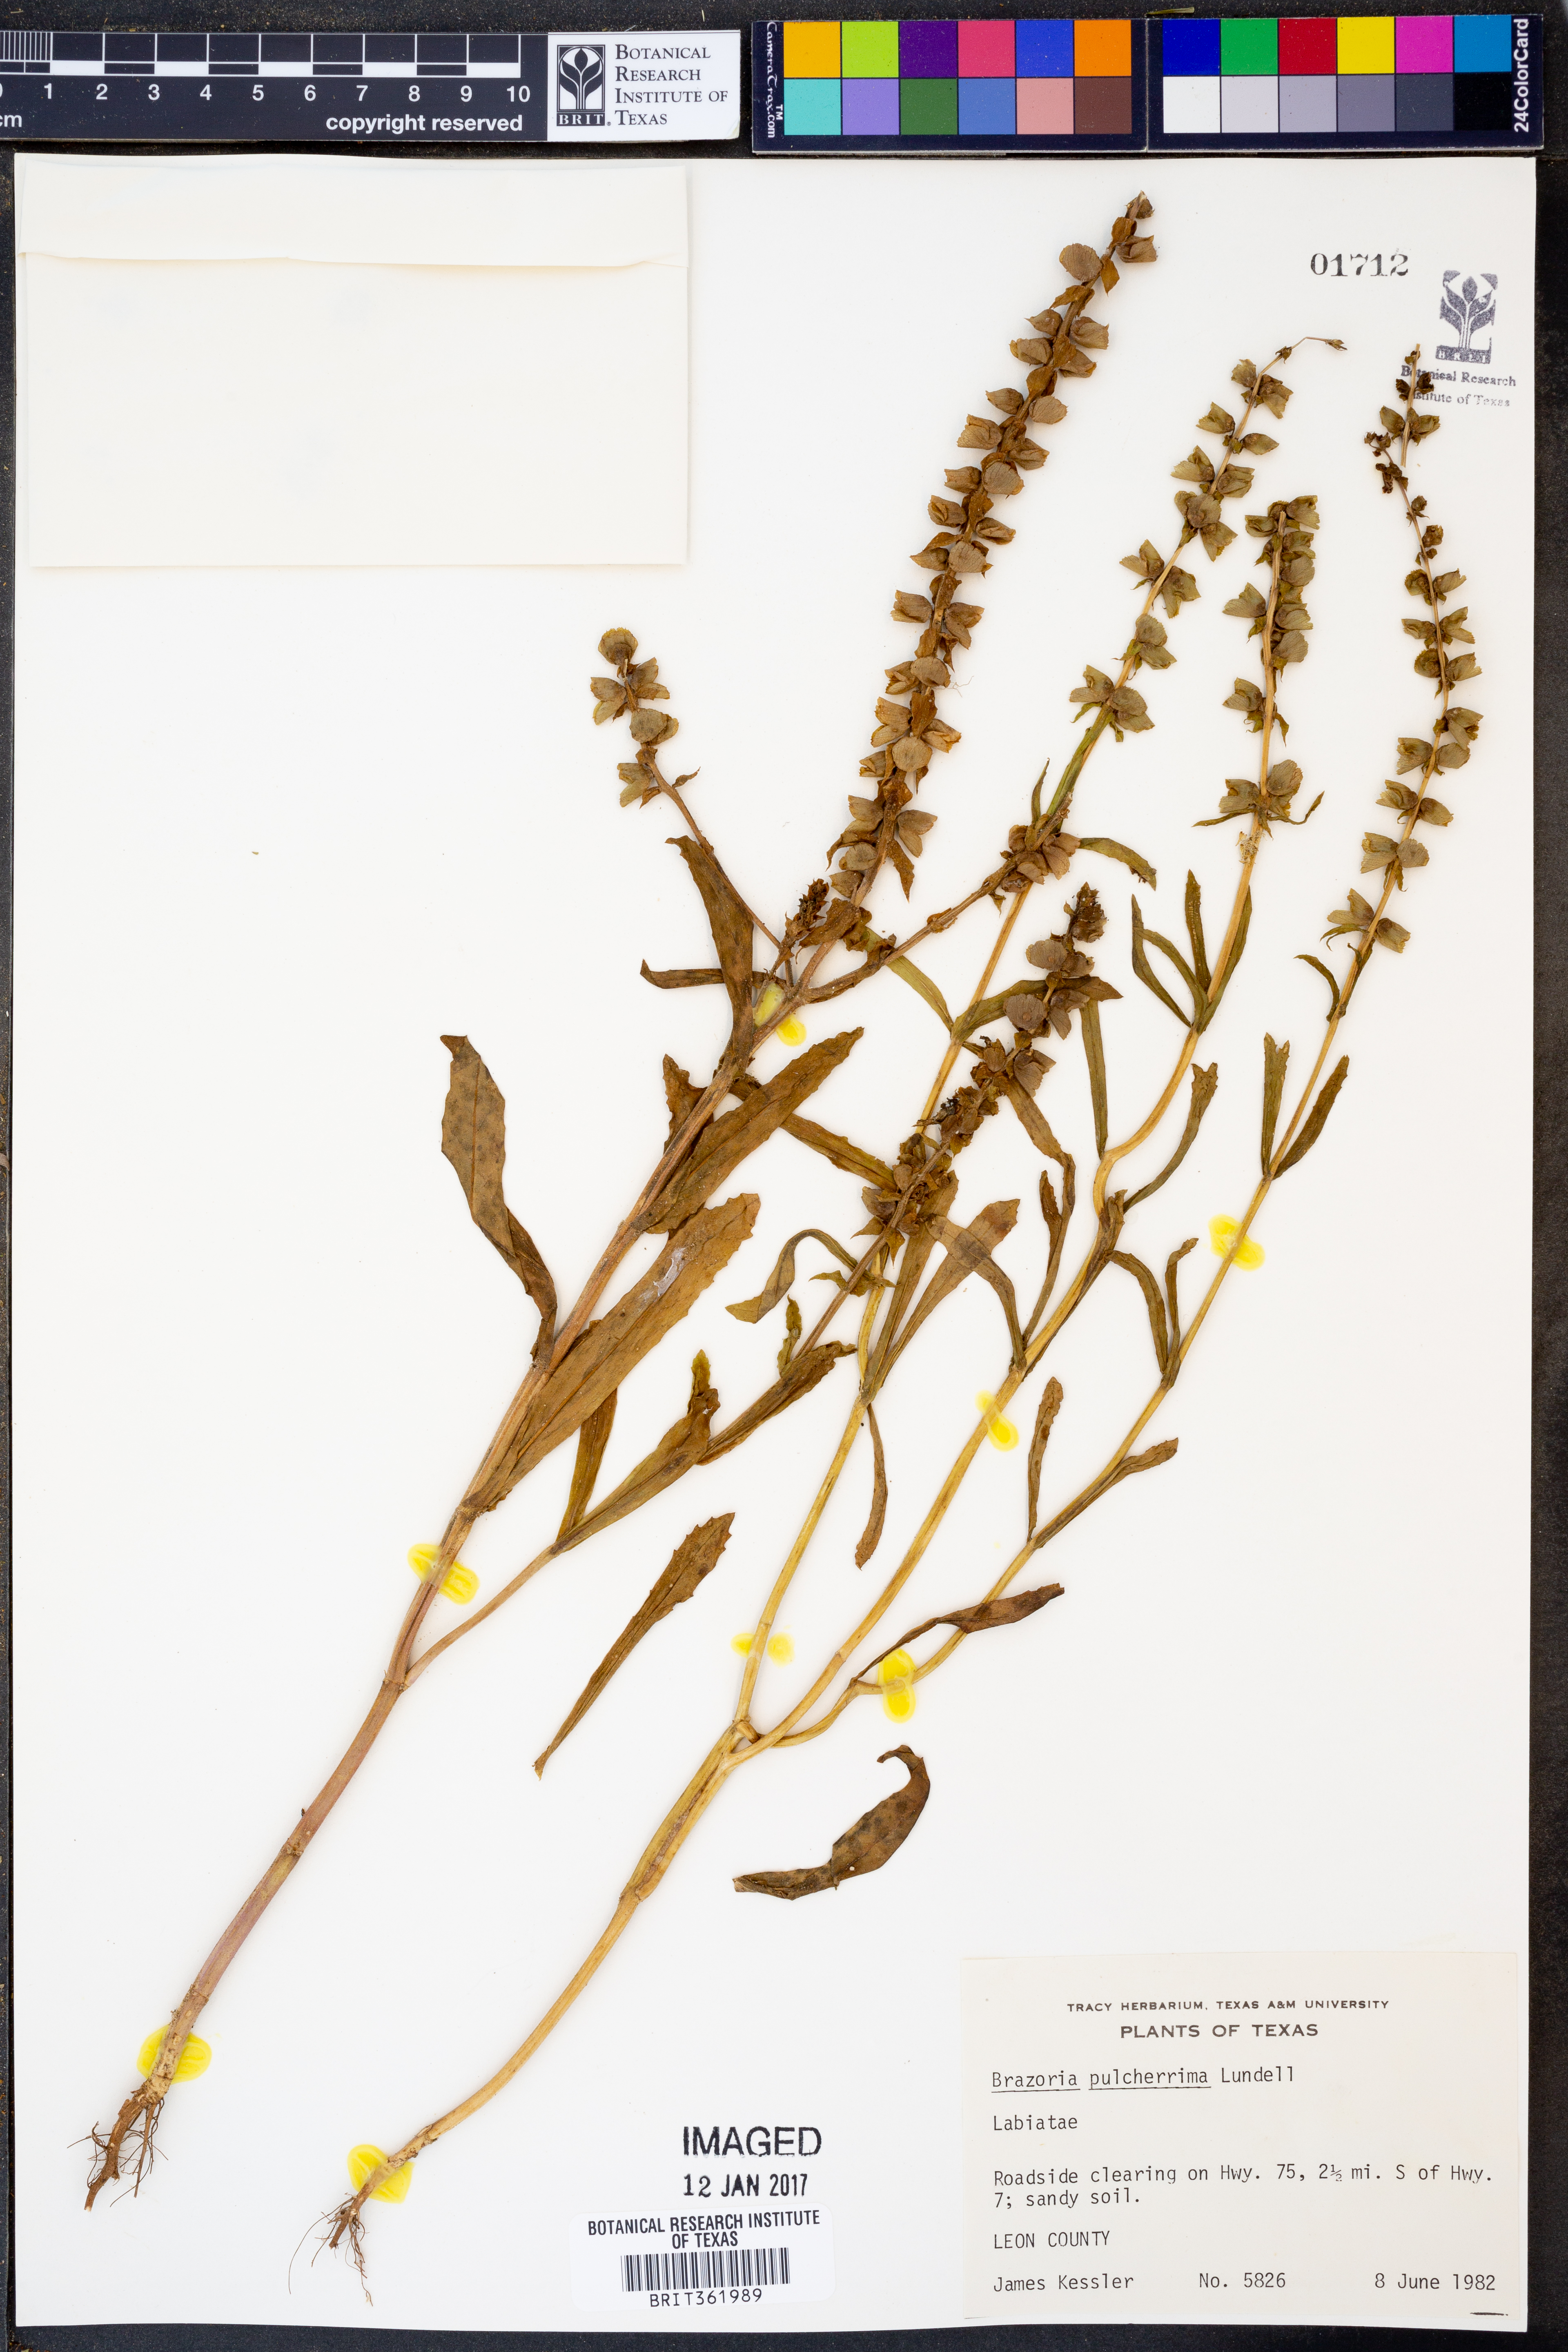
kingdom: Plantae
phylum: Tracheophyta
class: Magnoliopsida
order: Lamiales
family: Lamiaceae
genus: Brazoria
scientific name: Brazoria truncata
